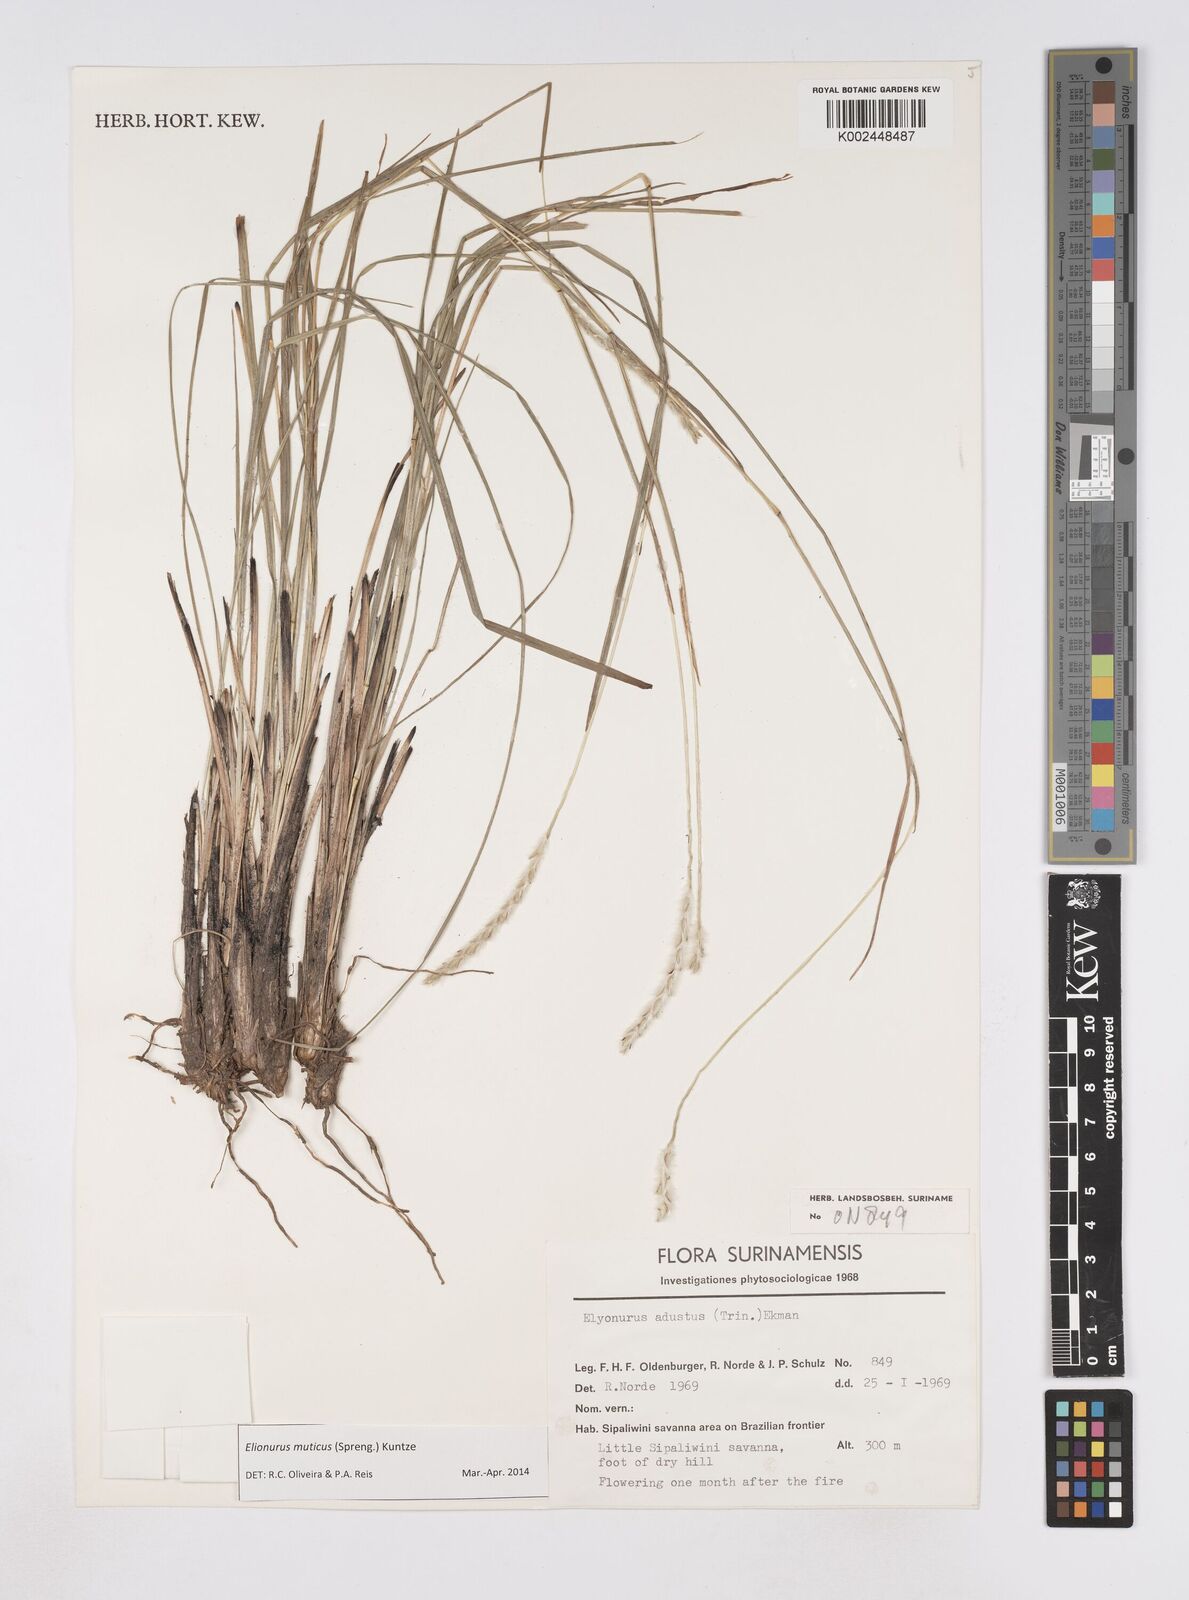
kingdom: Plantae
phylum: Tracheophyta
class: Liliopsida
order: Poales
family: Poaceae
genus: Elionurus
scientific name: Elionurus muticus
